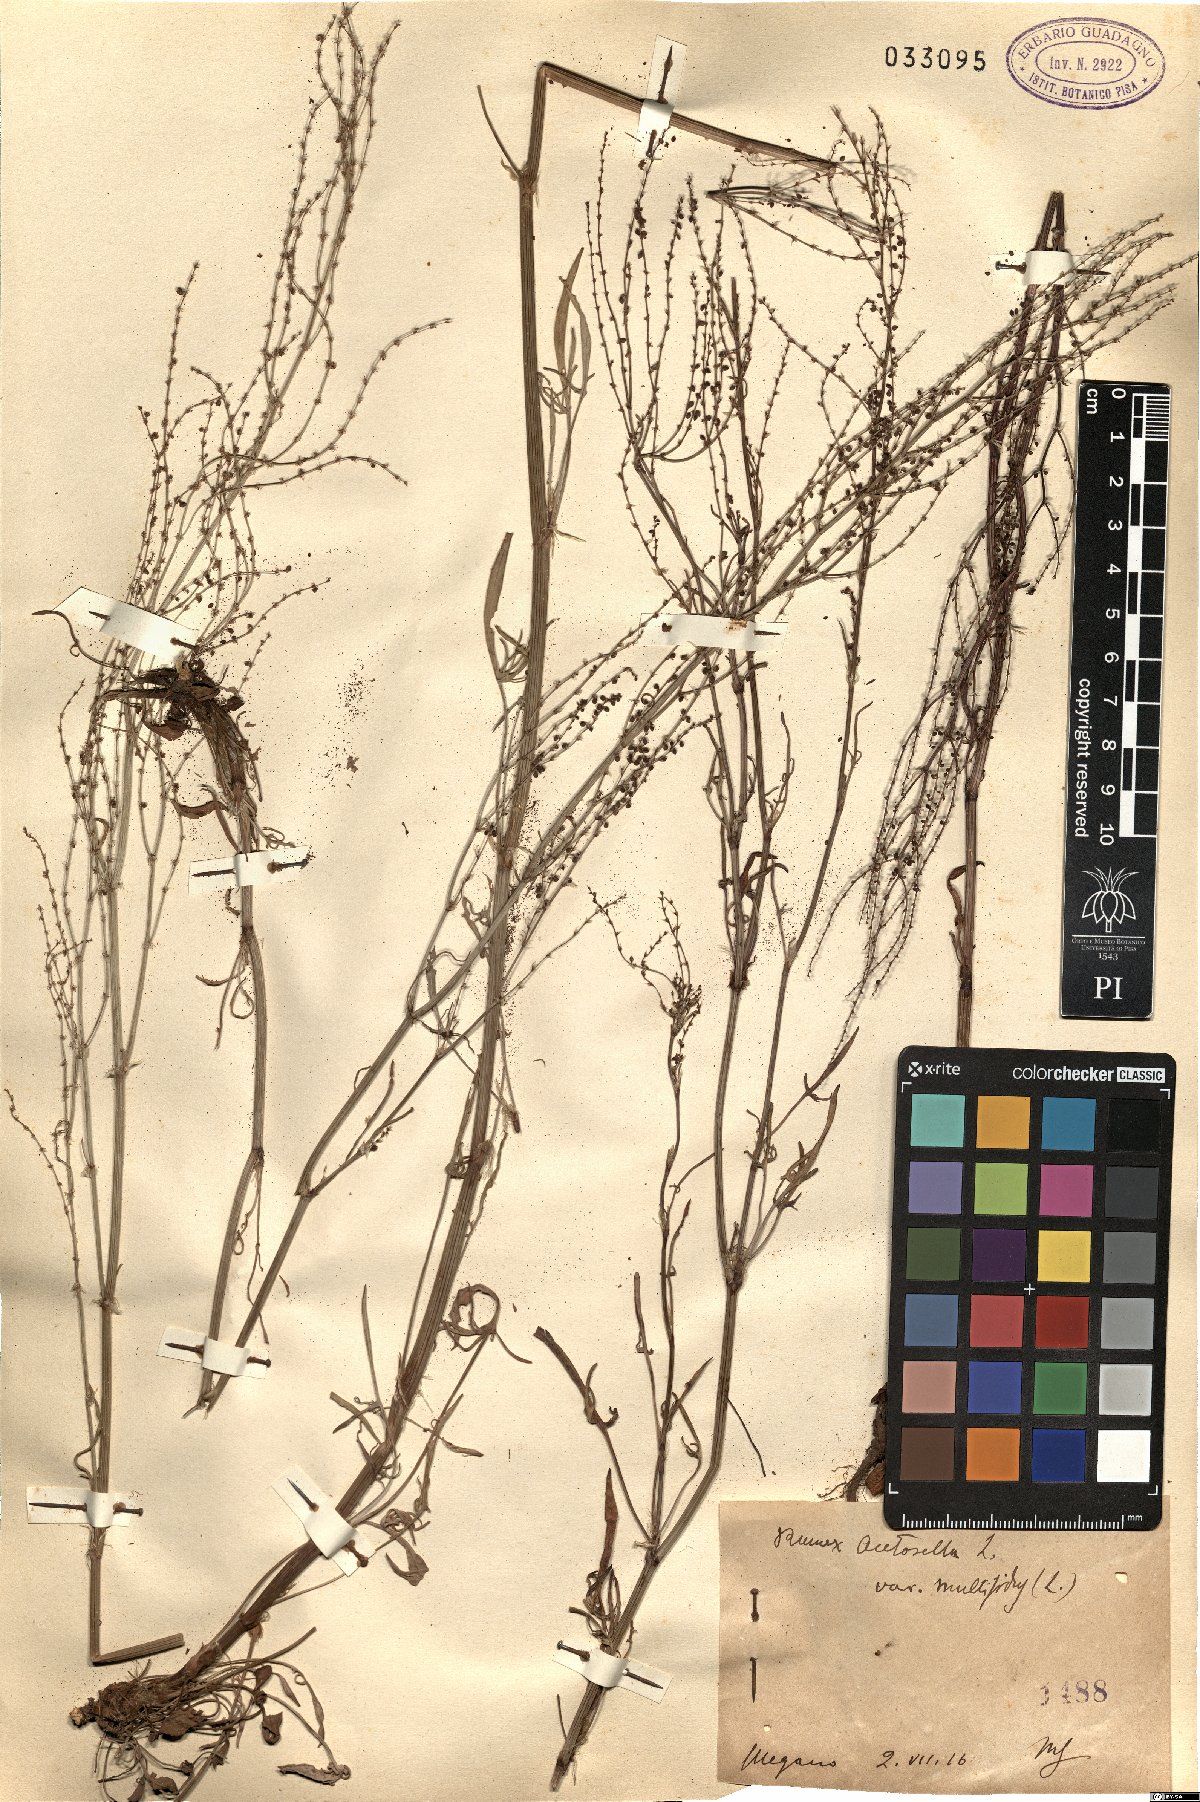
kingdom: Plantae
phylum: Tracheophyta
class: Magnoliopsida
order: Caryophyllales
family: Polygonaceae
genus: Rumex
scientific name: Rumex acetosella
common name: Common sheep sorrel
